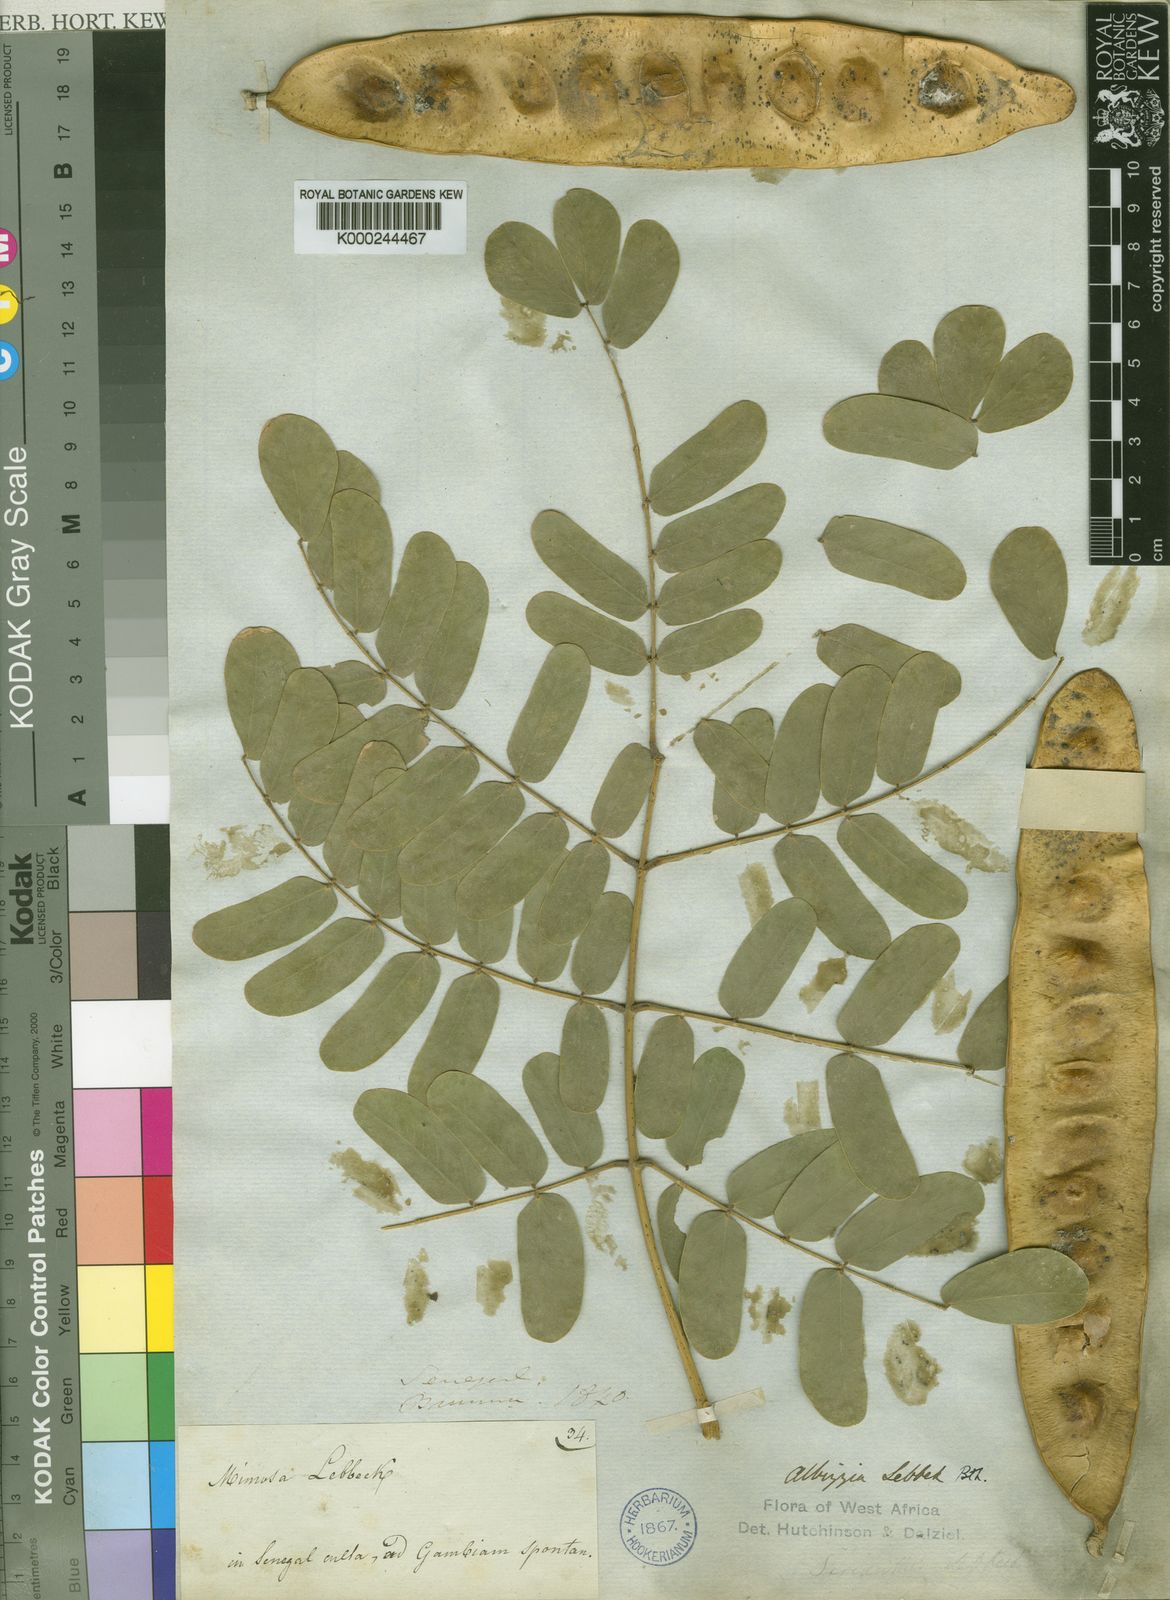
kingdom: Plantae
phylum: Tracheophyta
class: Magnoliopsida
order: Fabales
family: Fabaceae
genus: Albizia
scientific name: Albizia
